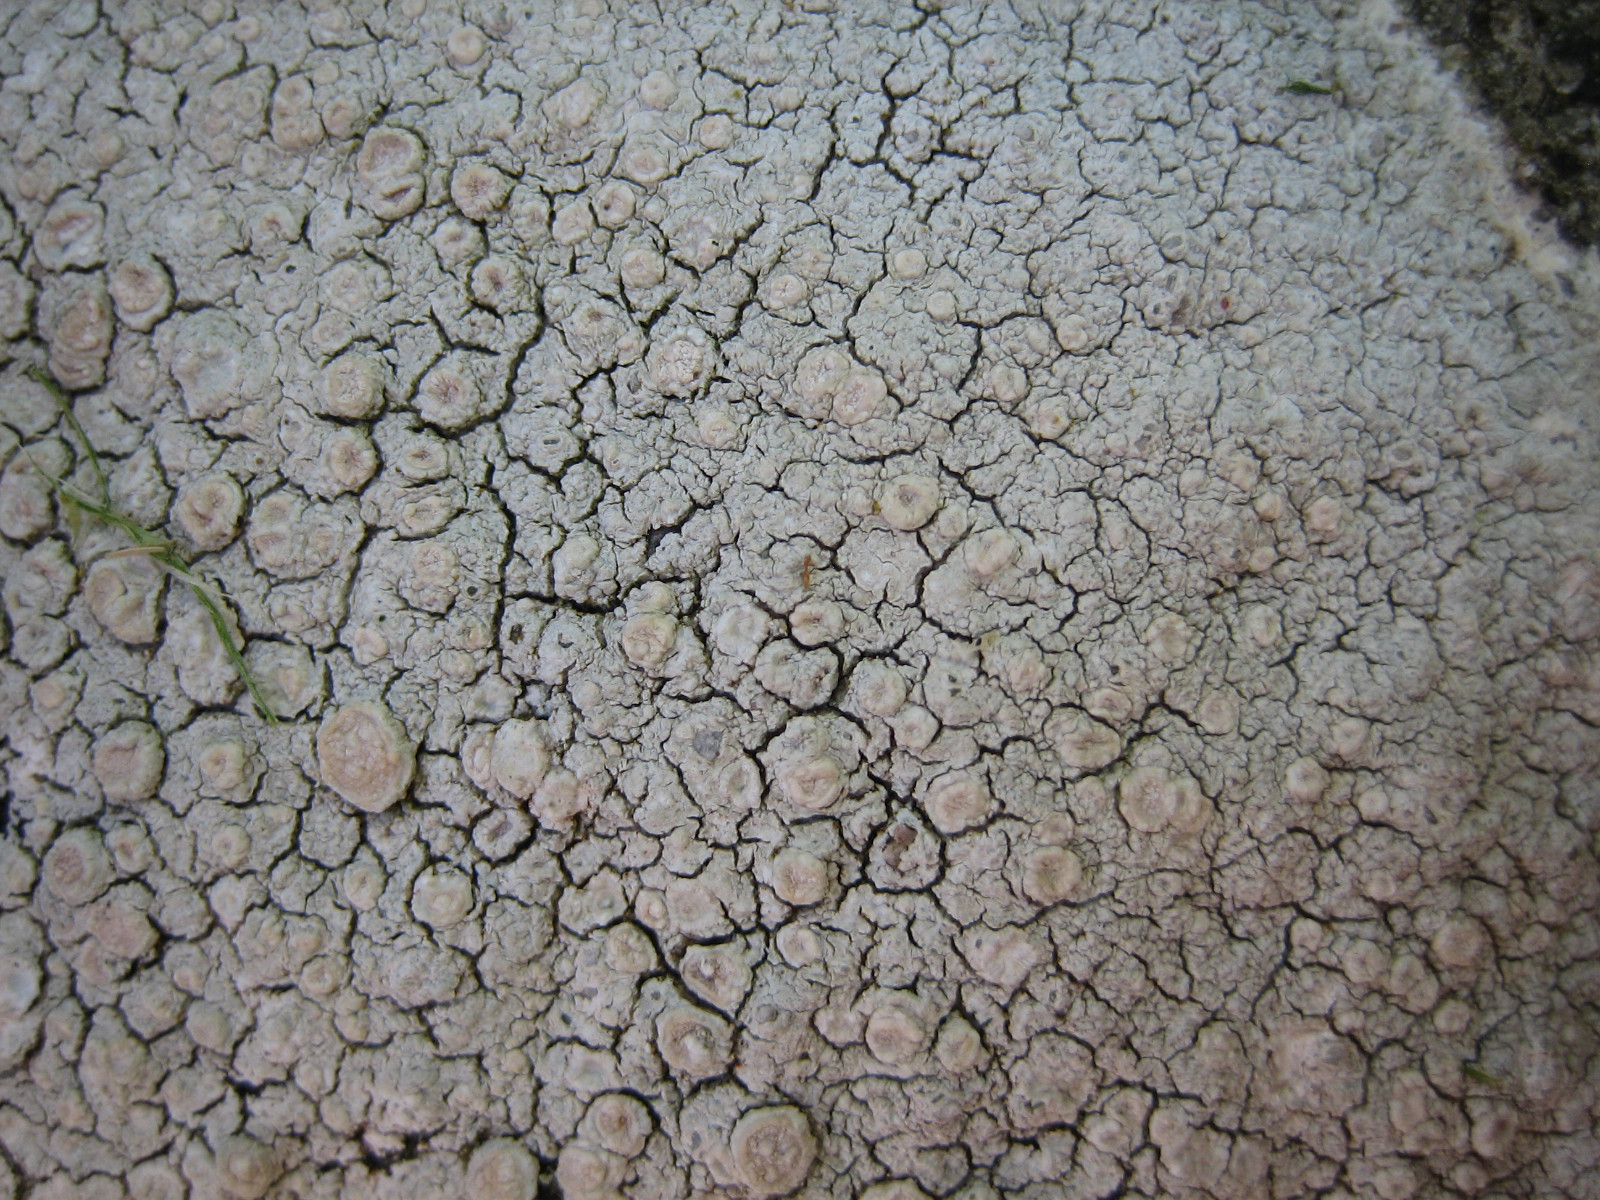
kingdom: Fungi
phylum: Ascomycota
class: Lecanoromycetes
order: Pertusariales
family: Ochrolechiaceae
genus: Ochrolechia
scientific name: Ochrolechia parella
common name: almindelig blegskivelav
